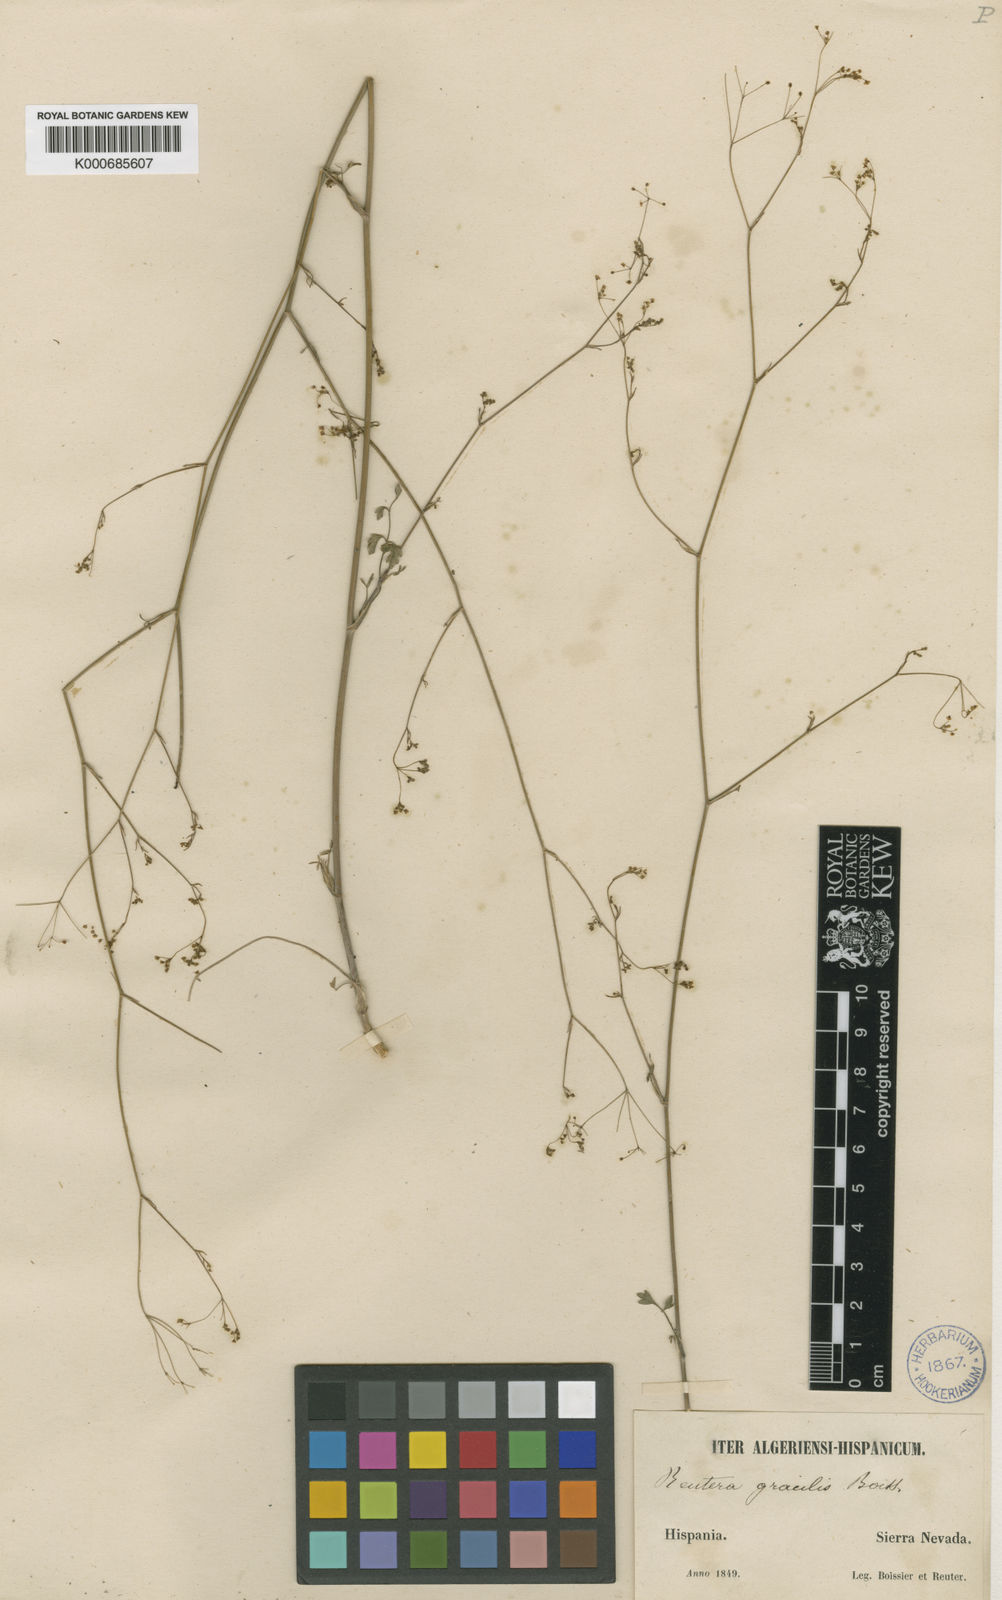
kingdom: Plantae
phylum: Tracheophyta
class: Magnoliopsida
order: Apiales
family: Apiaceae
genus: Pimpinella
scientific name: Pimpinella
